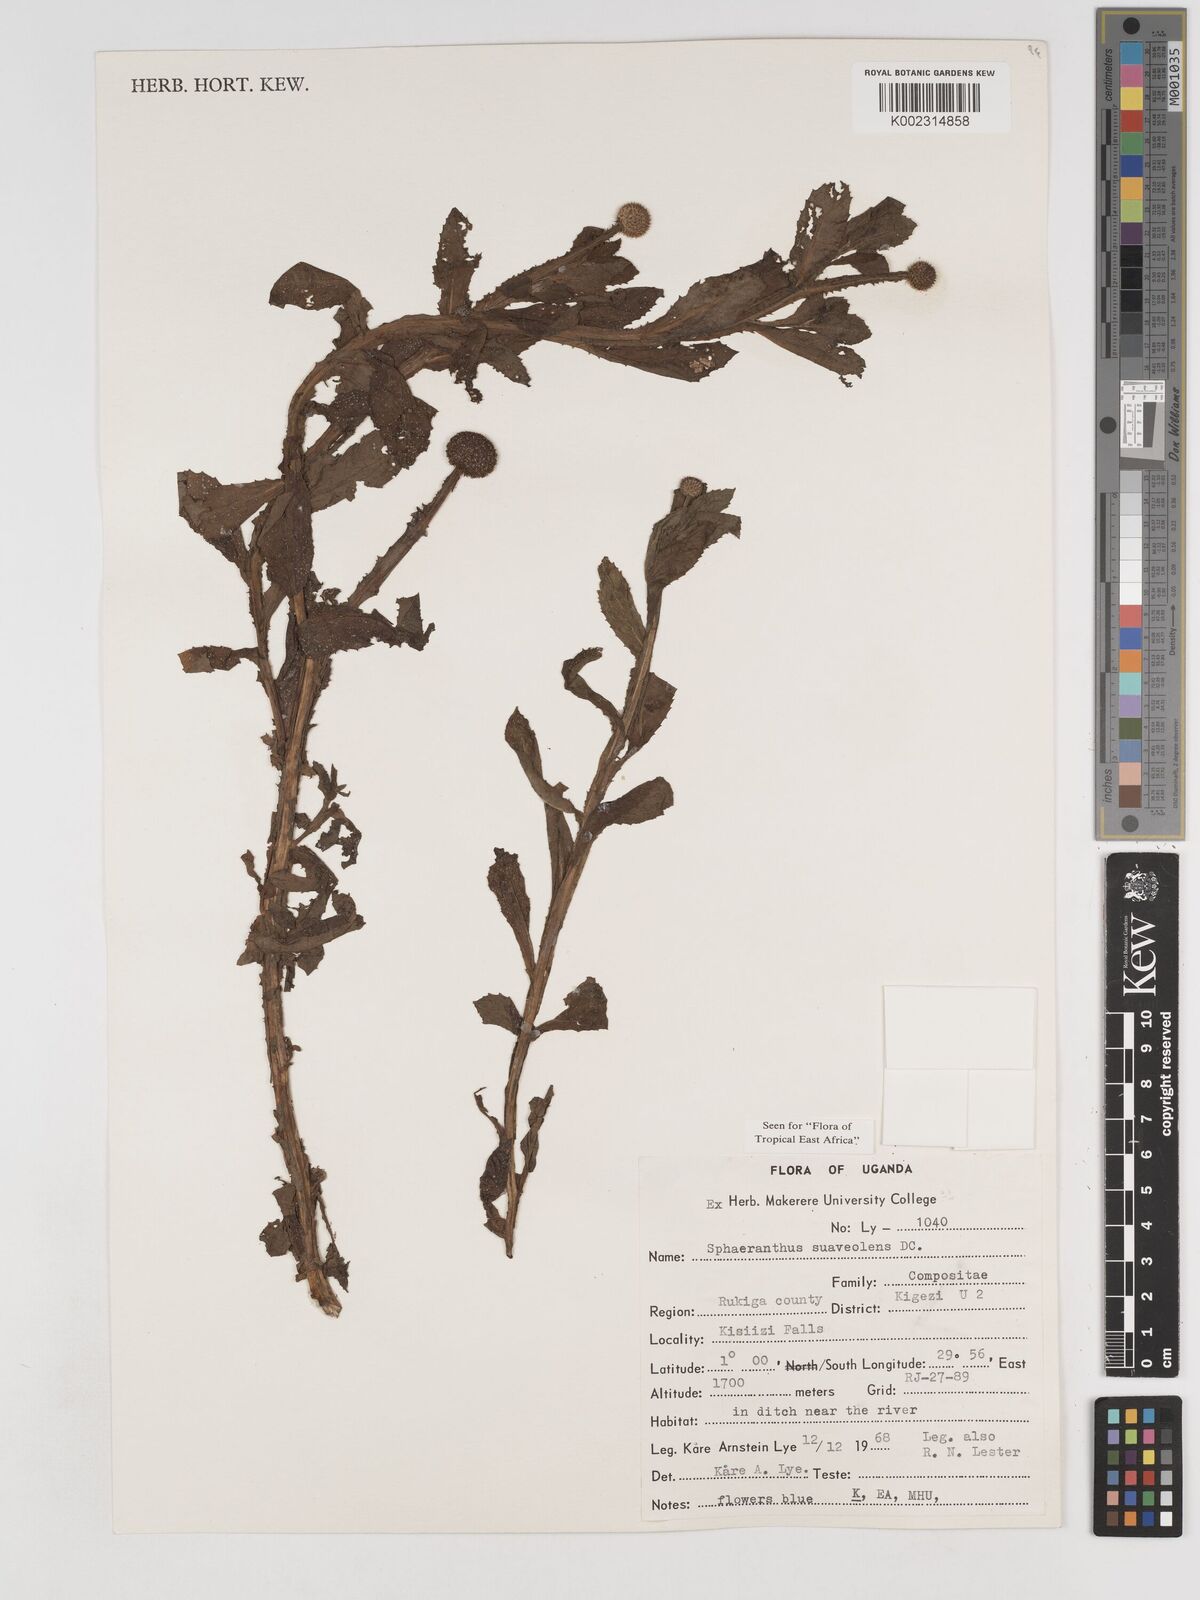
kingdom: Plantae
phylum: Tracheophyta
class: Magnoliopsida
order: Asterales
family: Asteraceae
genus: Sphaeranthus
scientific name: Sphaeranthus suaveolens
